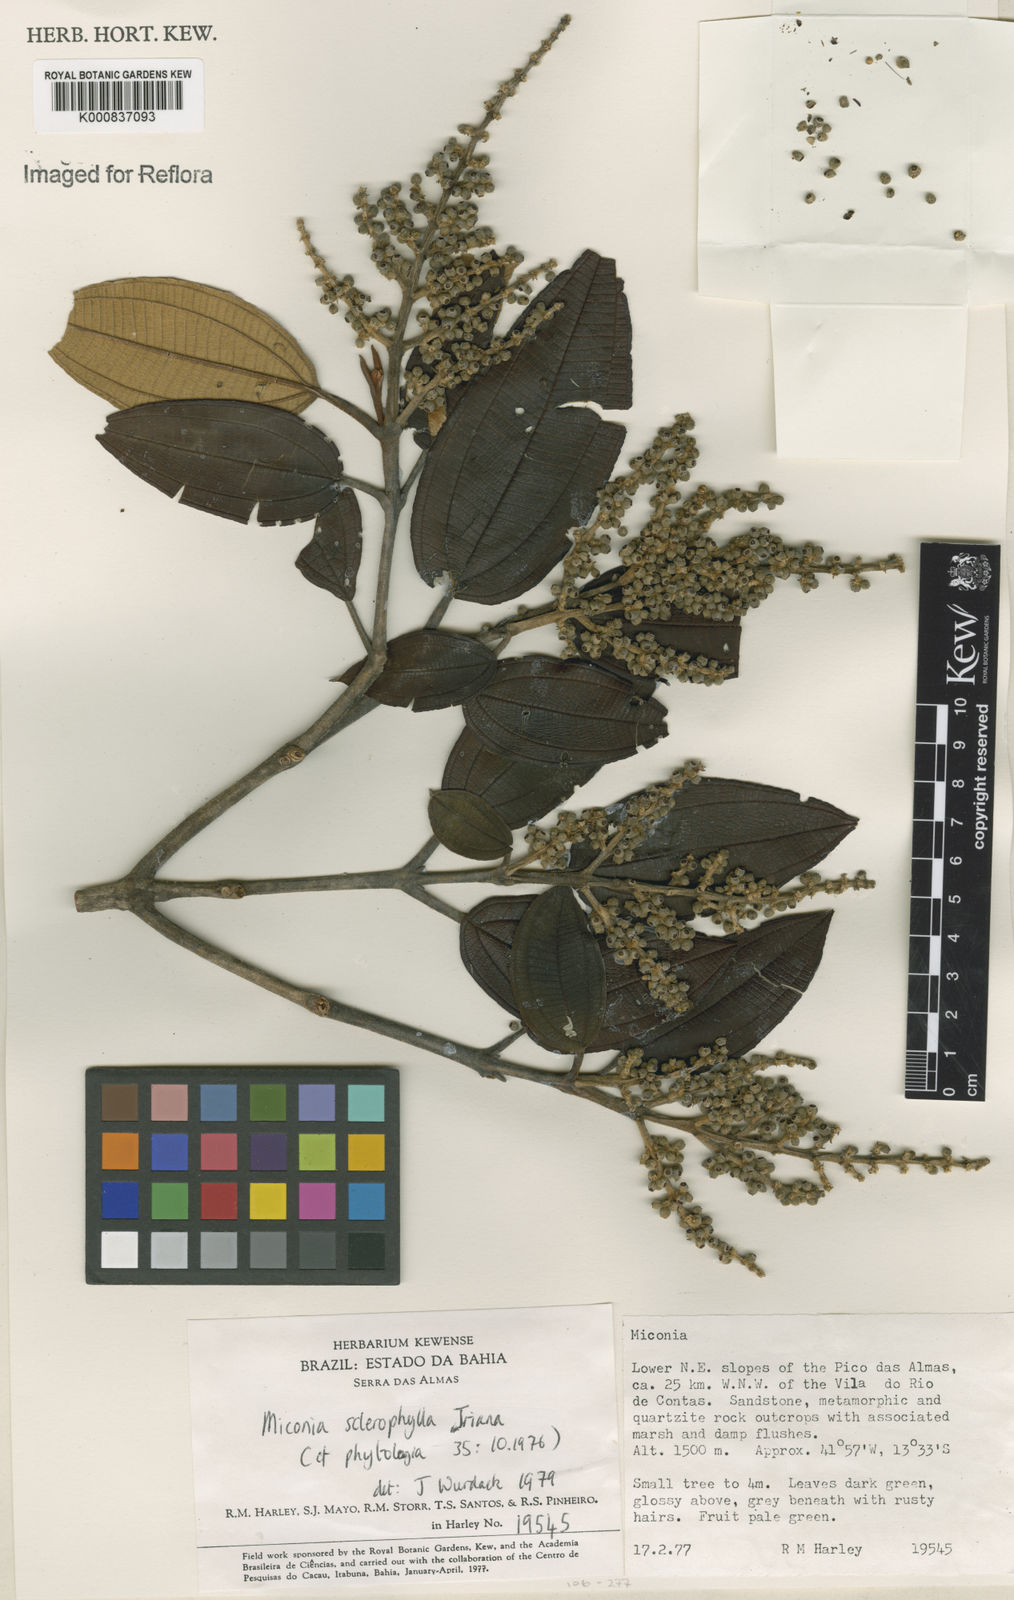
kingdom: Plantae
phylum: Tracheophyta
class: Magnoliopsida
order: Myrtales
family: Melastomataceae
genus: Miconia
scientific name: Miconia sclerophylla
